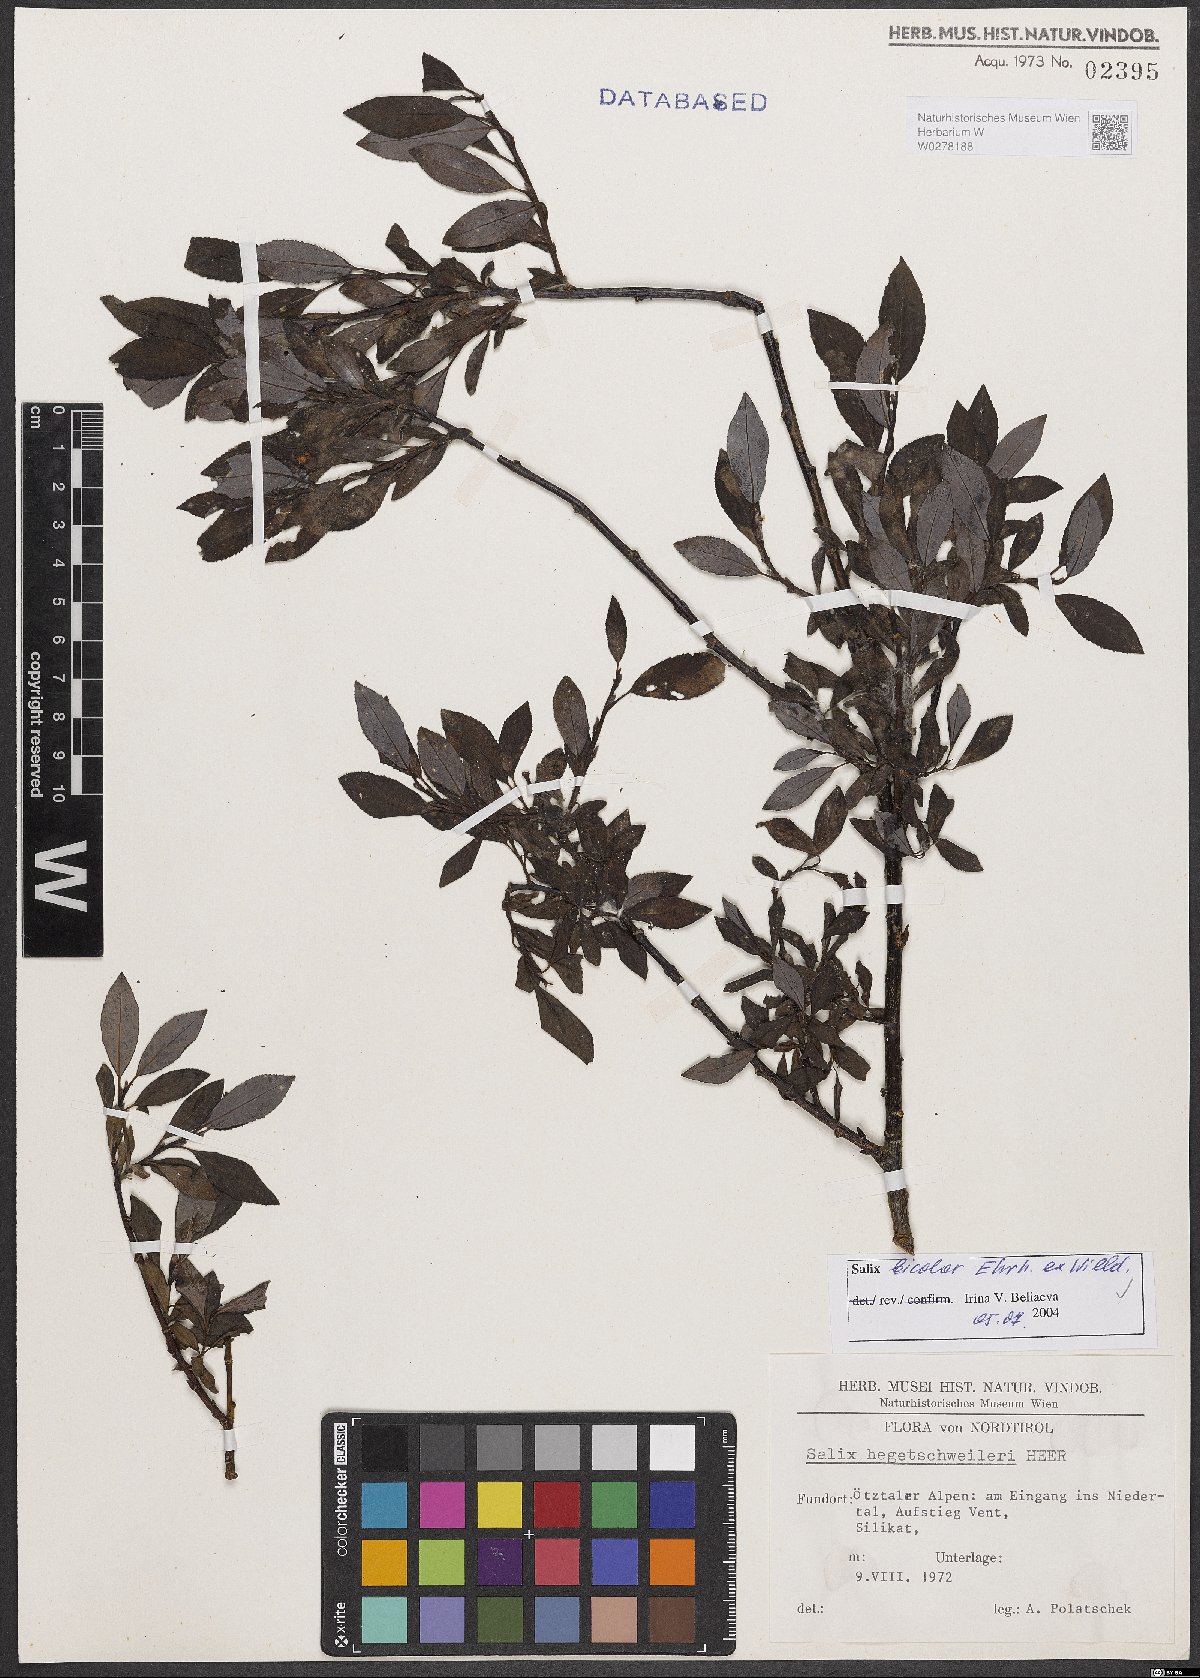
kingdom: Plantae
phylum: Tracheophyta
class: Magnoliopsida
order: Malpighiales
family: Salicaceae
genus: Salix
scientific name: Salix bicolor
